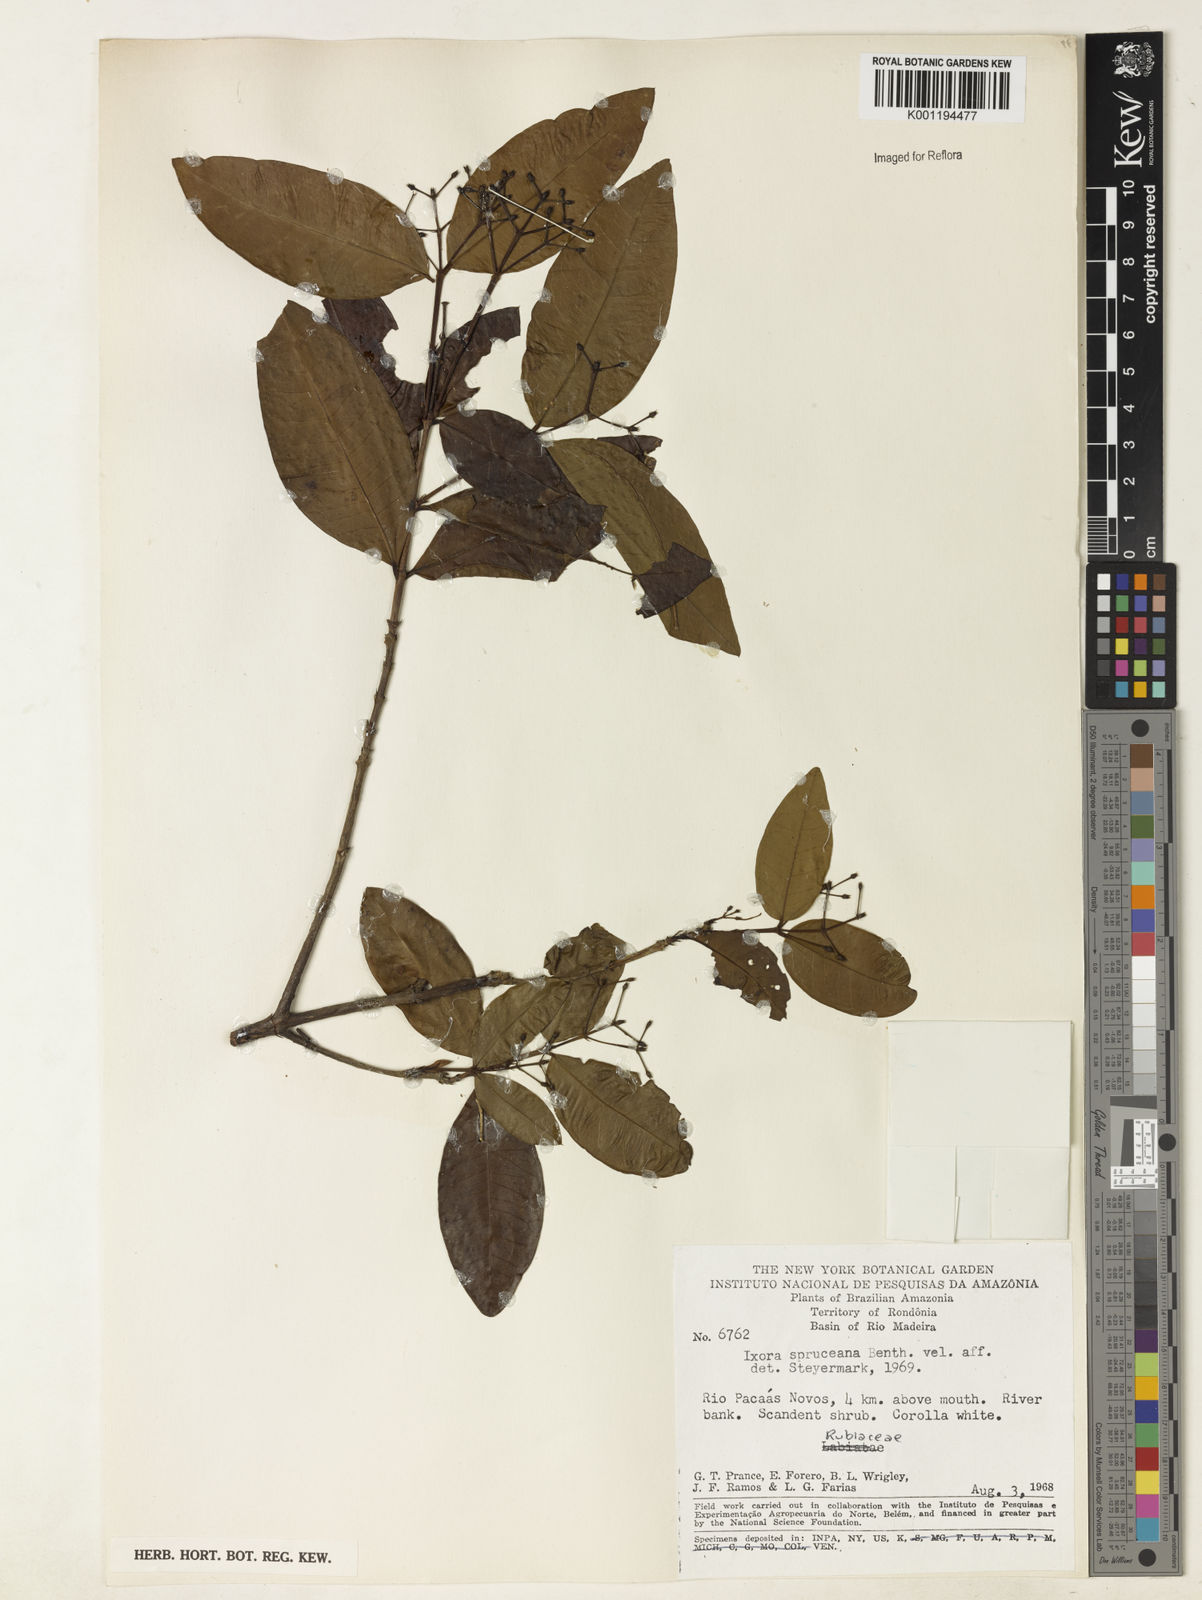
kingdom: Plantae
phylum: Tracheophyta
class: Magnoliopsida
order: Gentianales
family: Rubiaceae
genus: Ixora
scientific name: Ixora
